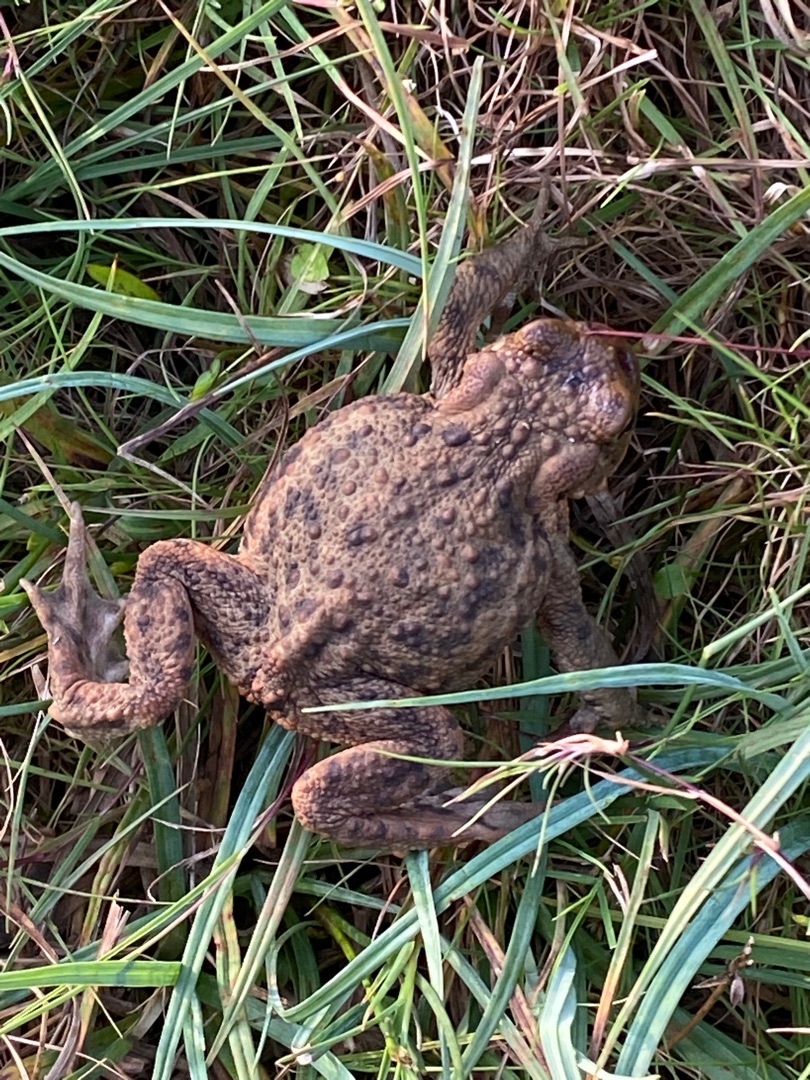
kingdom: Animalia
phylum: Chordata
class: Amphibia
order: Anura
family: Bufonidae
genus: Bufo
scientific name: Bufo bufo
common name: Skrubtudse
